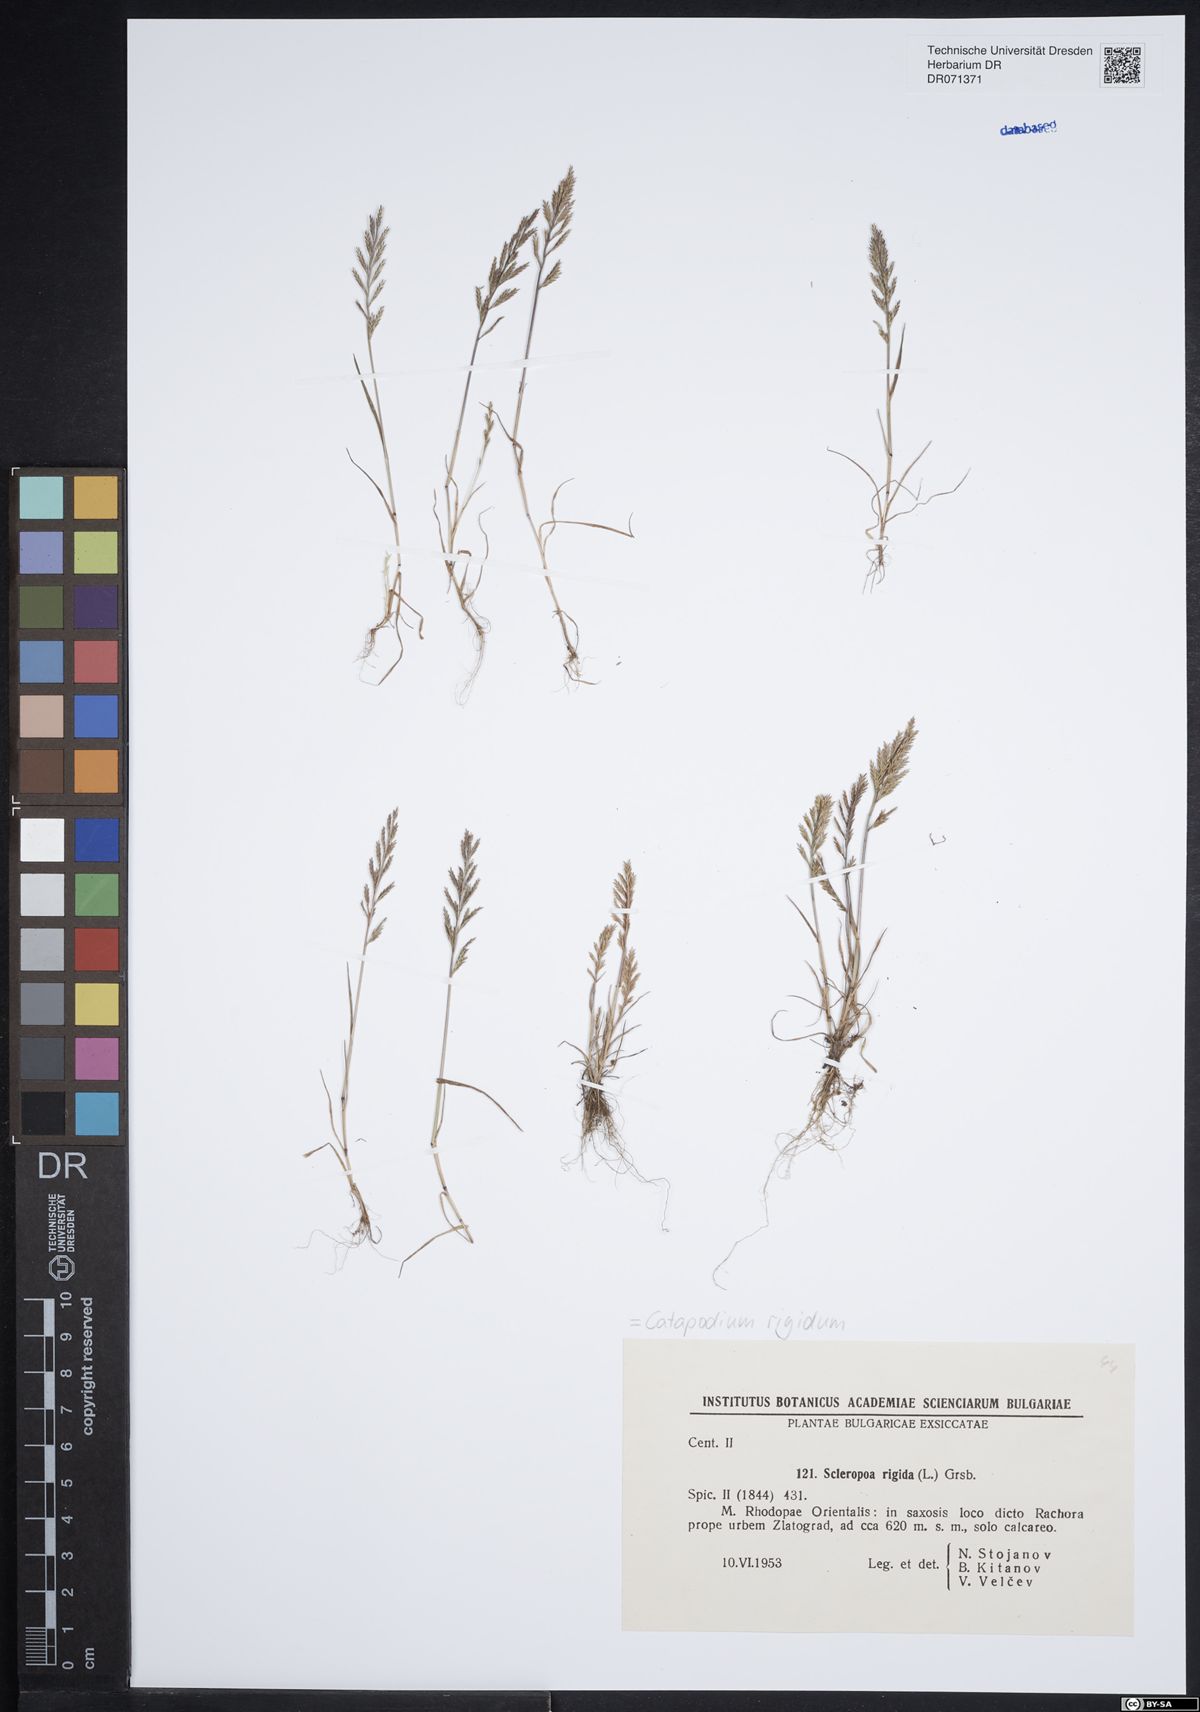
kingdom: Plantae
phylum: Tracheophyta
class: Liliopsida
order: Poales
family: Poaceae
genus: Catapodium
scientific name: Catapodium rigidum
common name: Fern-grass
